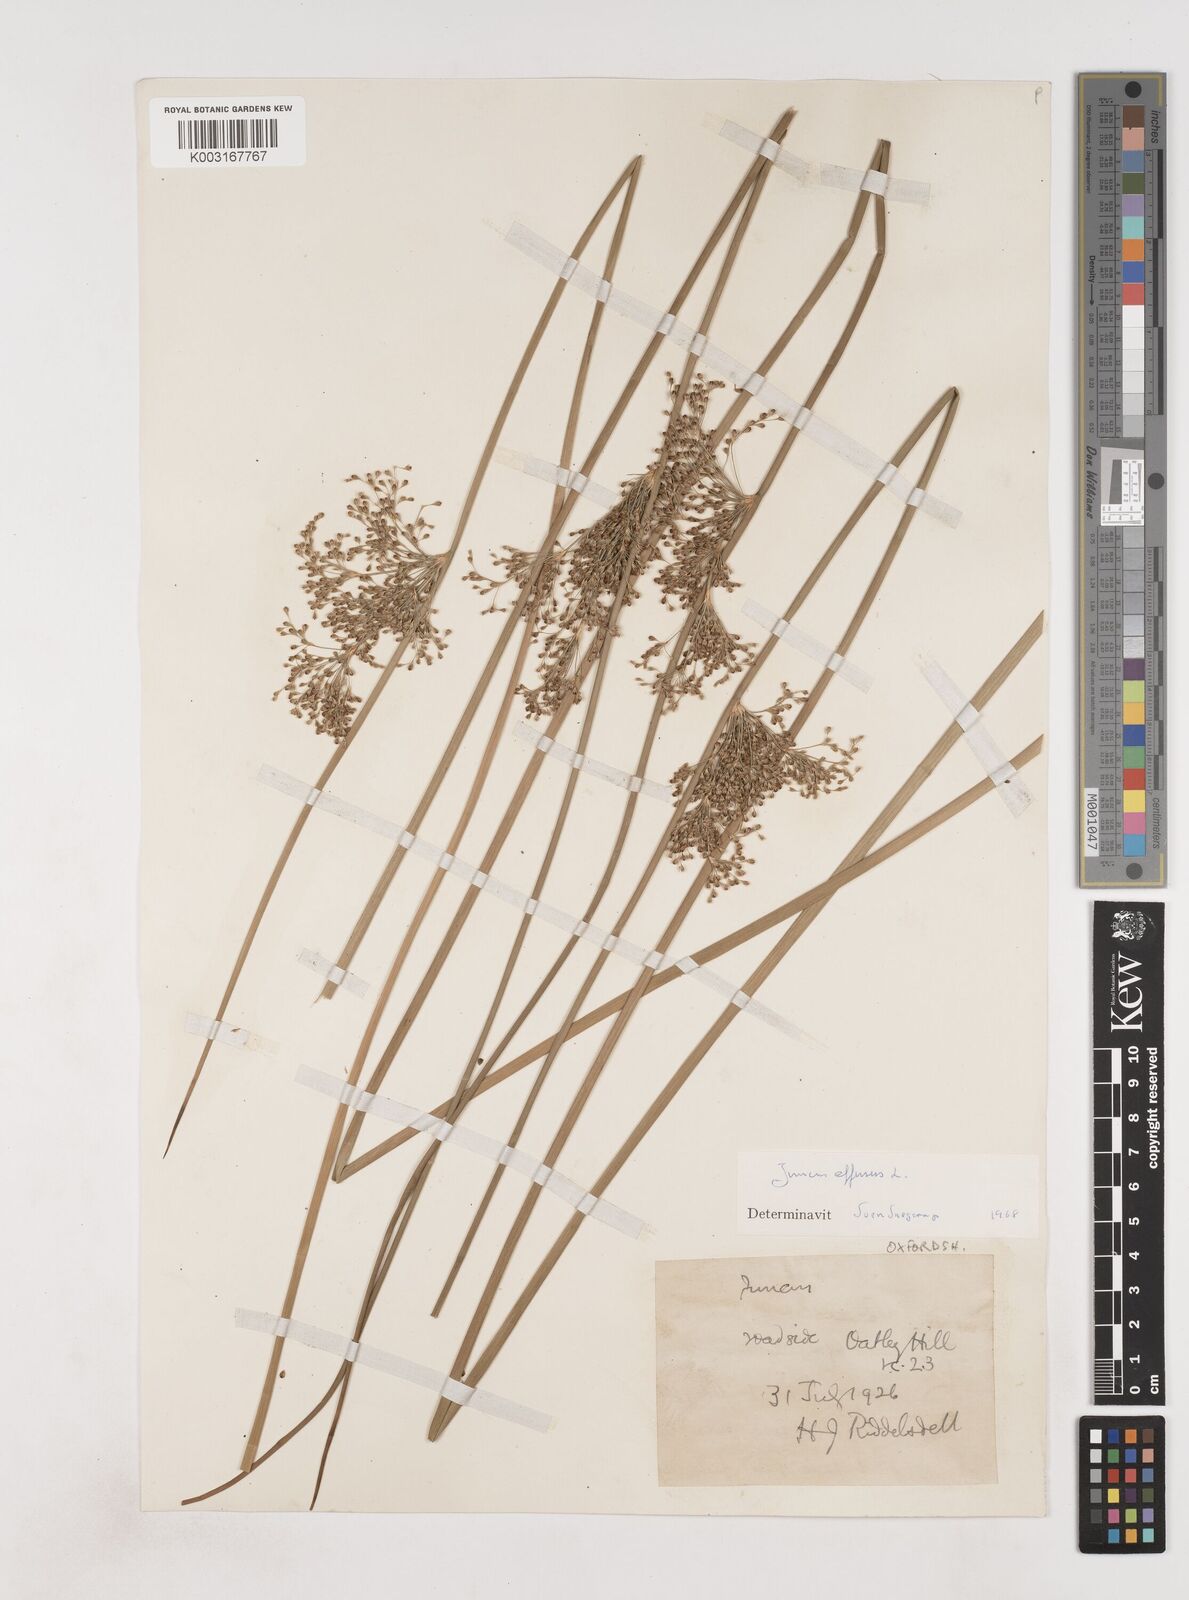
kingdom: Plantae
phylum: Tracheophyta
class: Liliopsida
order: Poales
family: Juncaceae
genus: Juncus
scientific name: Juncus effusus
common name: Soft rush
